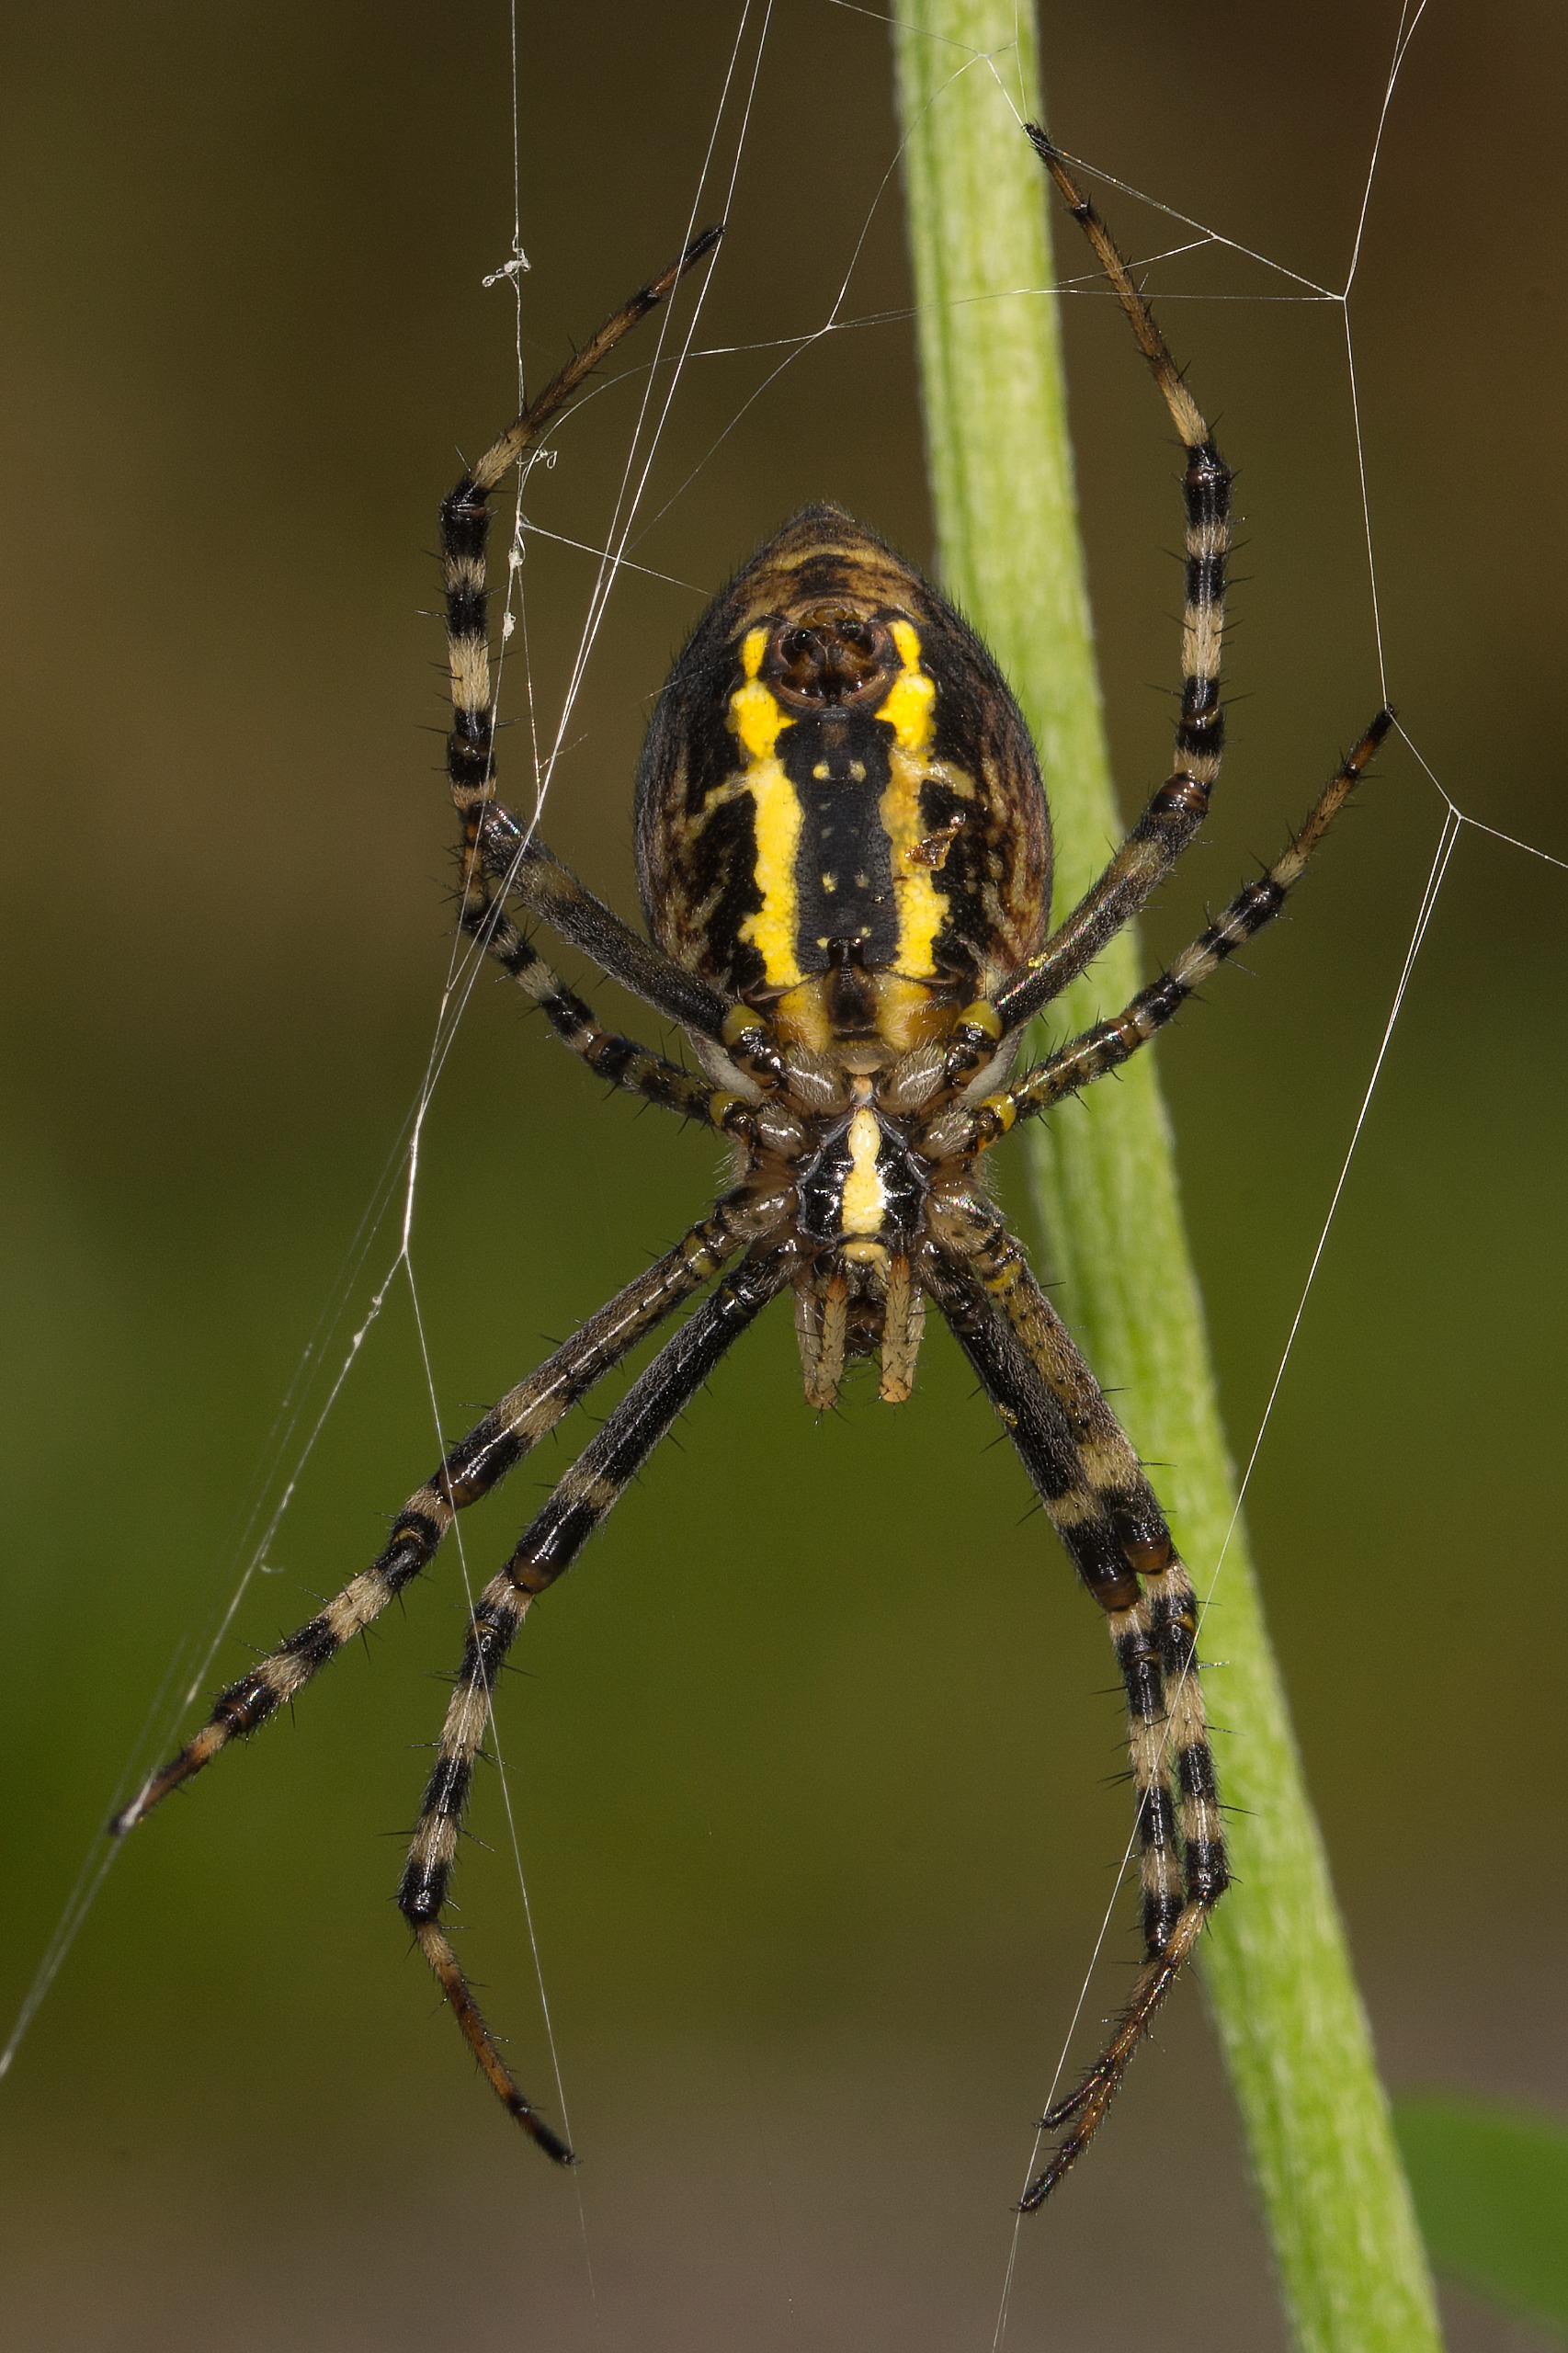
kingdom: Animalia
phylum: Arthropoda
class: Arachnida
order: Araneae
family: Araneidae
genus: Argiope
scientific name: Argiope bruennichi
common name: Hvepseedderkop
